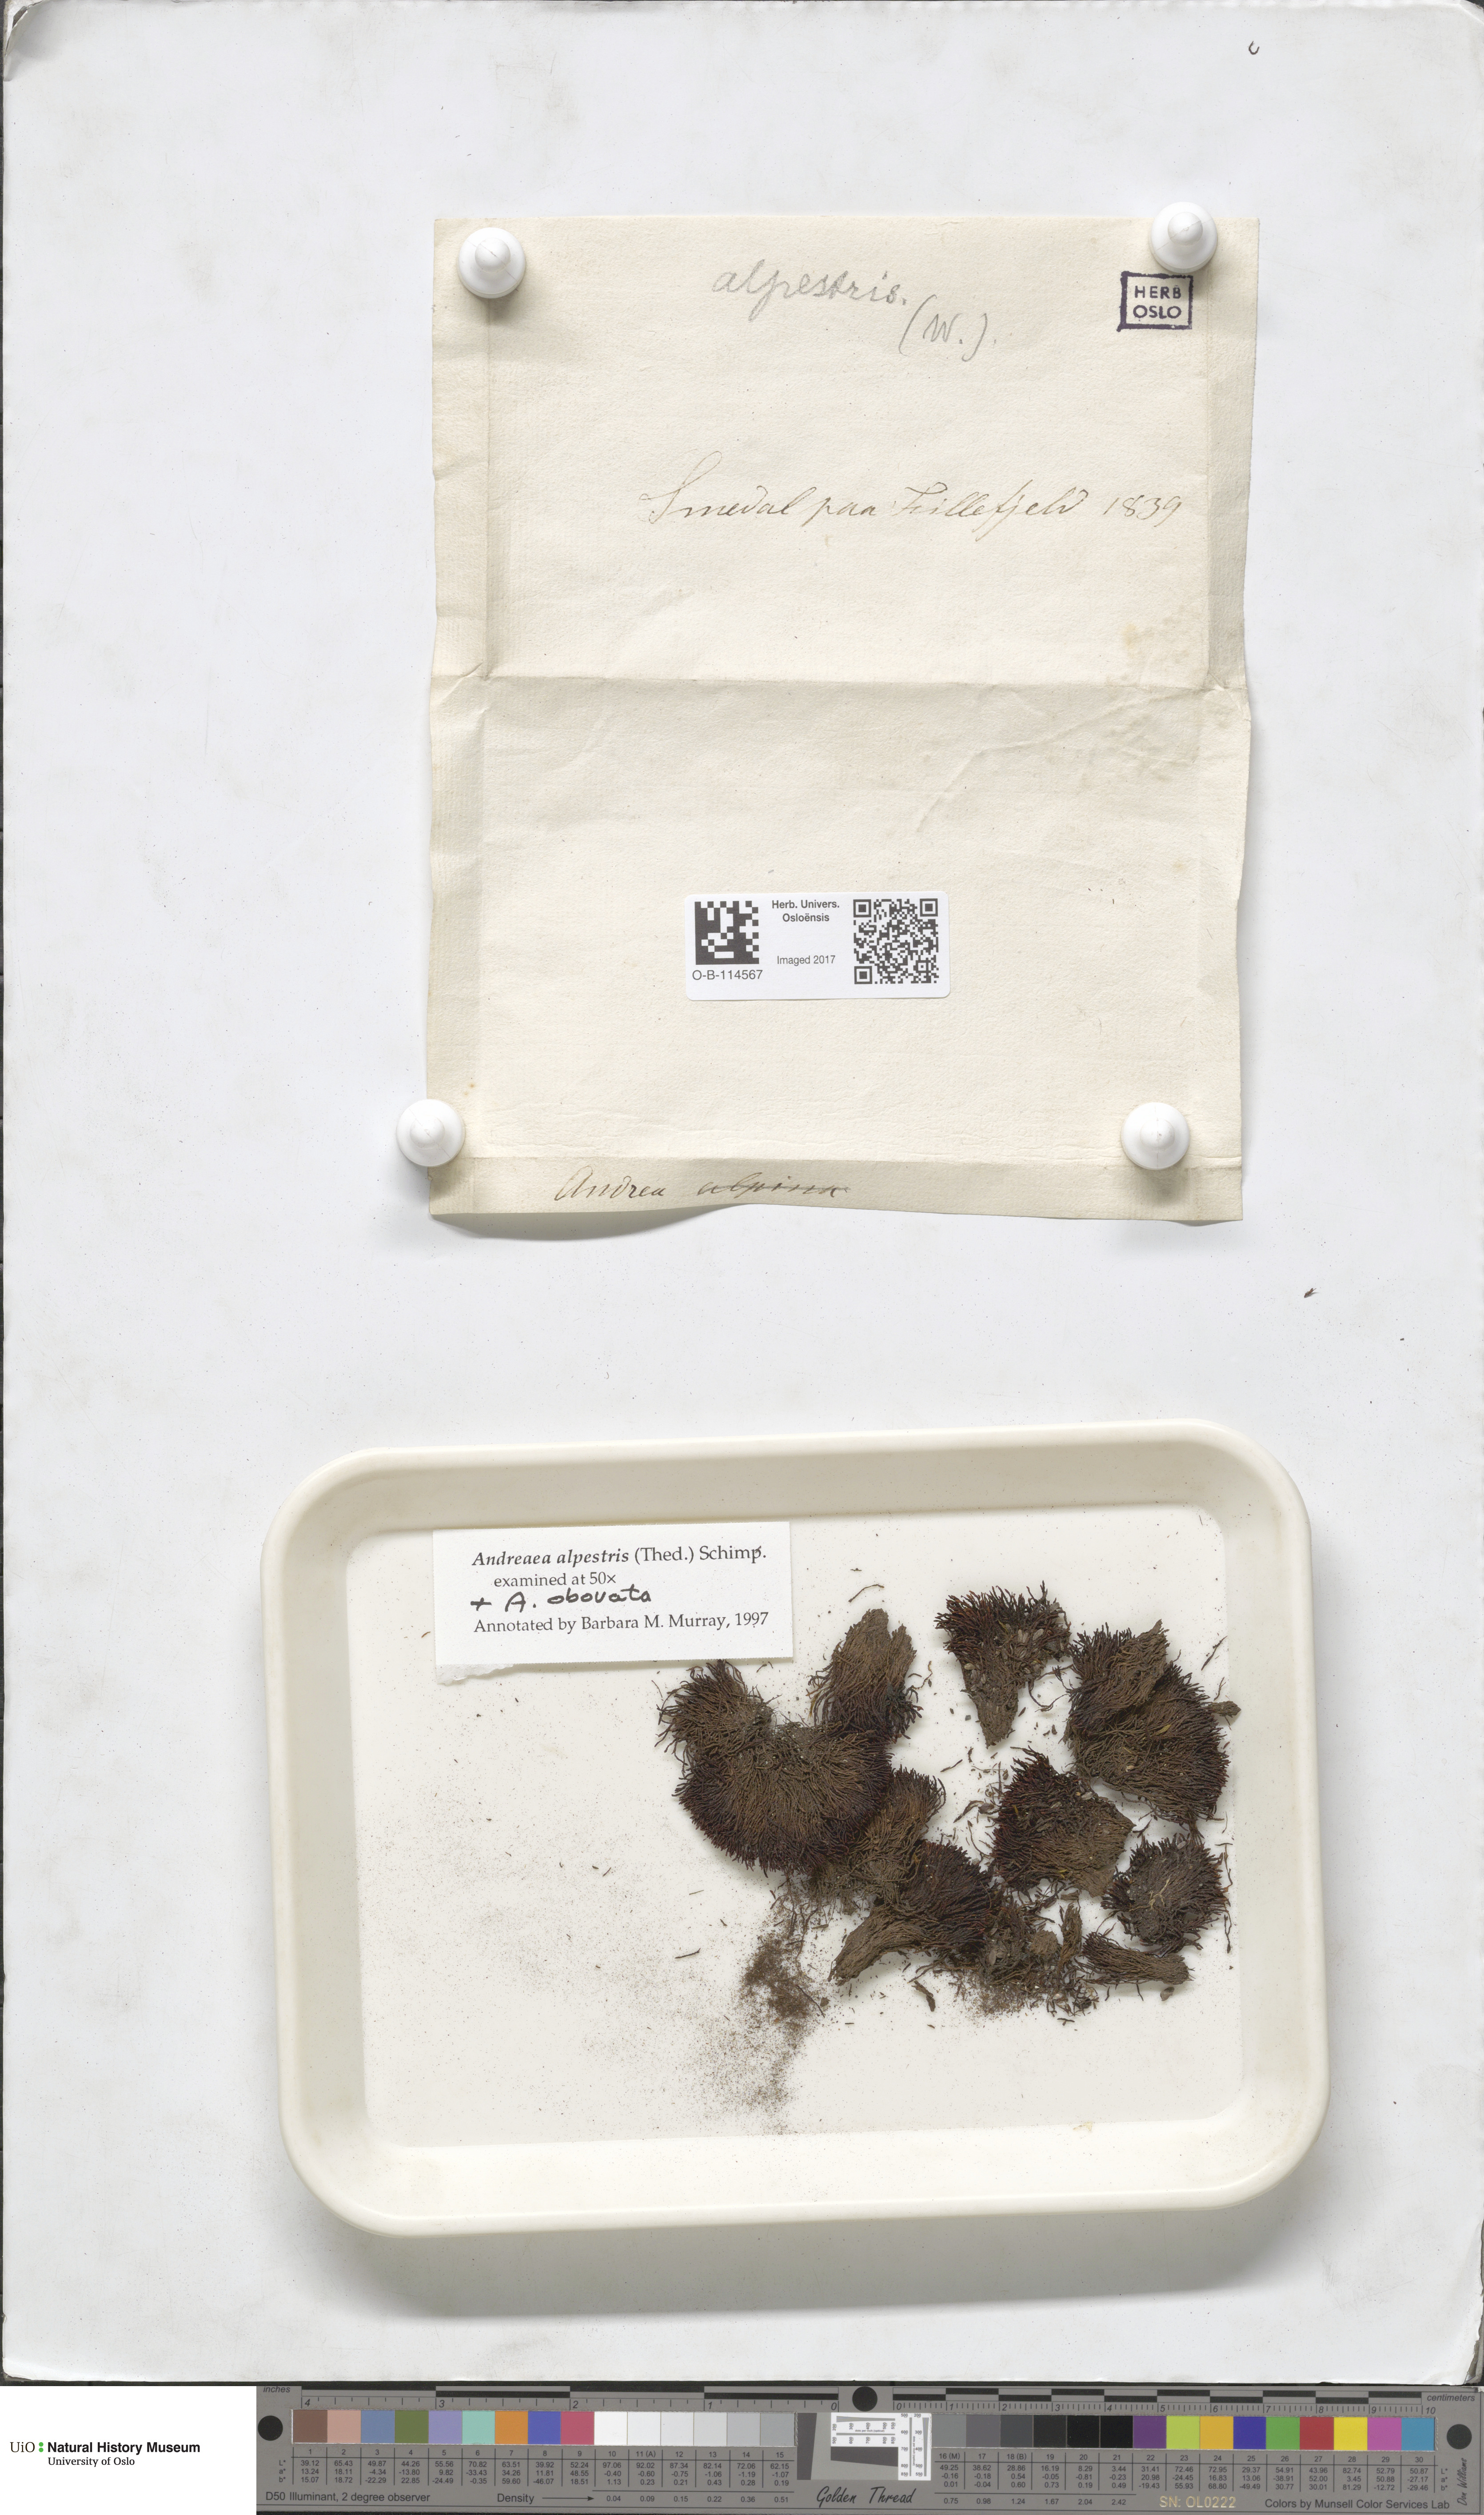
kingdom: Plantae
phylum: Bryophyta
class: Andreaeopsida
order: Andreaeales
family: Andreaeaceae
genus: Andreaea
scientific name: Andreaea alpestris
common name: Slender rock-moss
